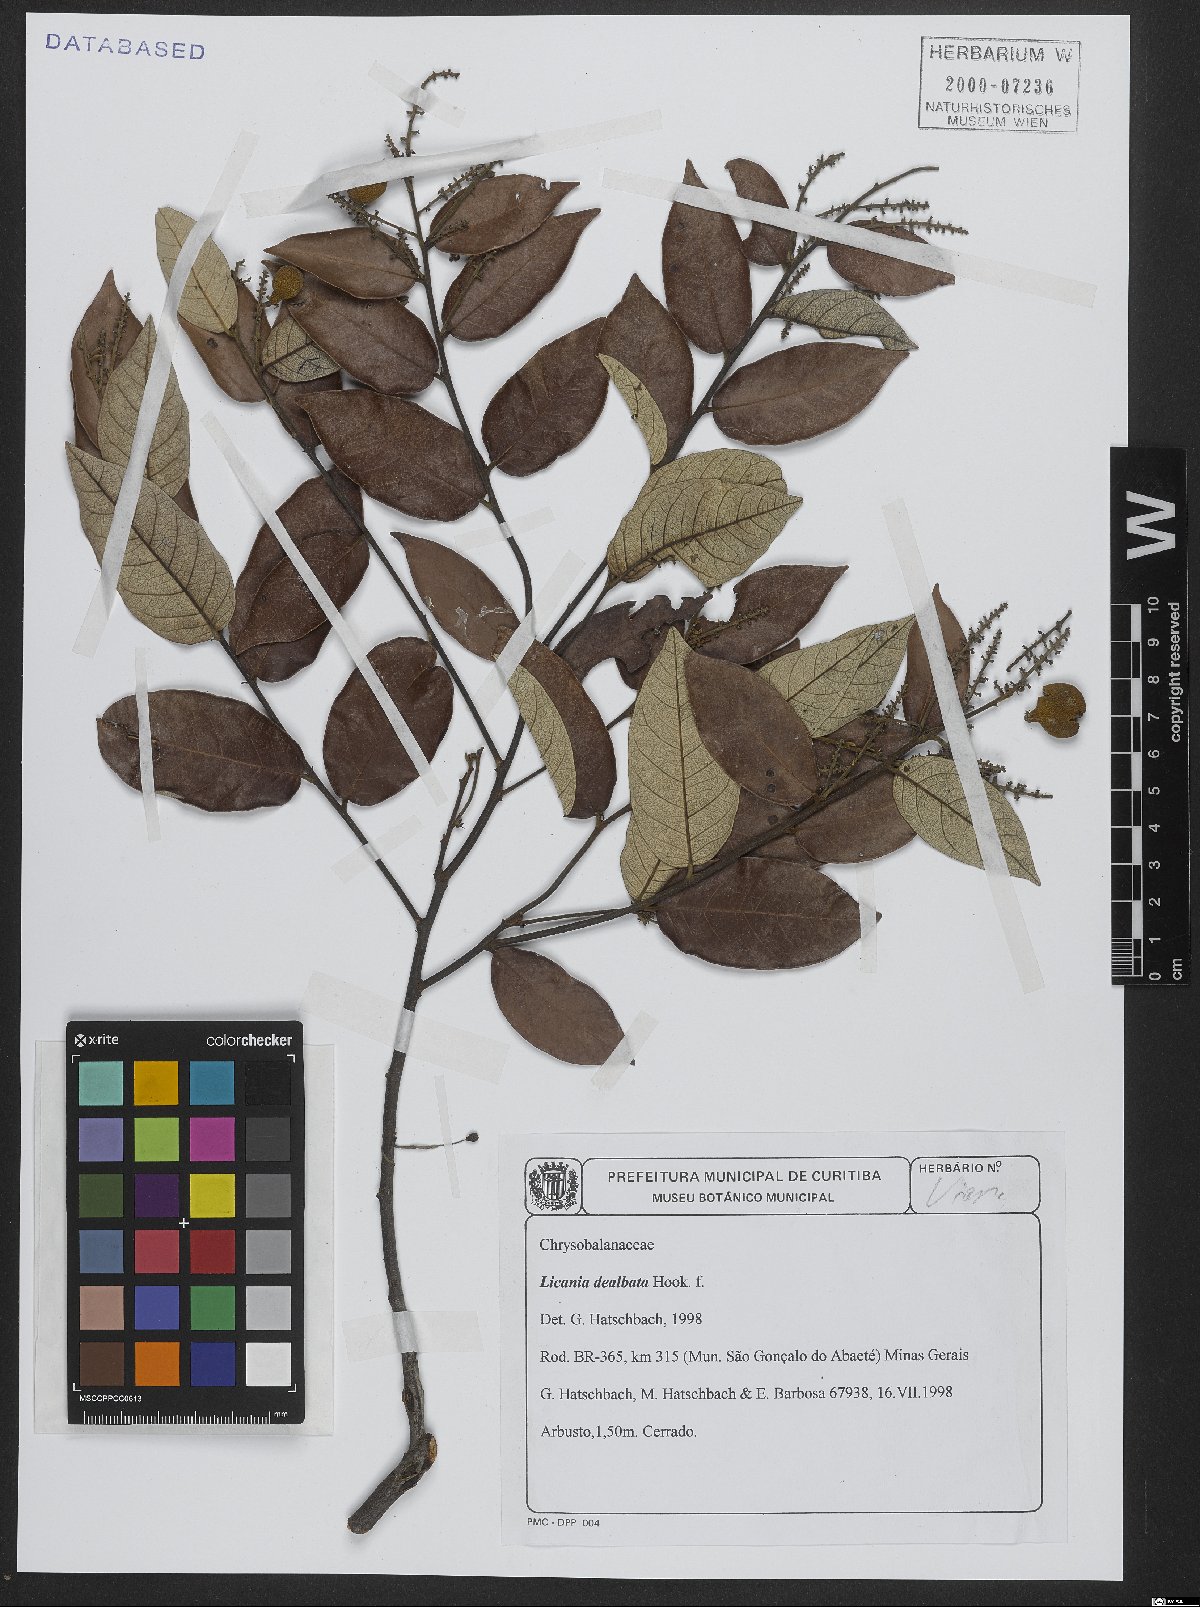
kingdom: Plantae
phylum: Tracheophyta
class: Magnoliopsida
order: Malpighiales
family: Chrysobalanaceae
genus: Licania
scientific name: Licania dealbata
